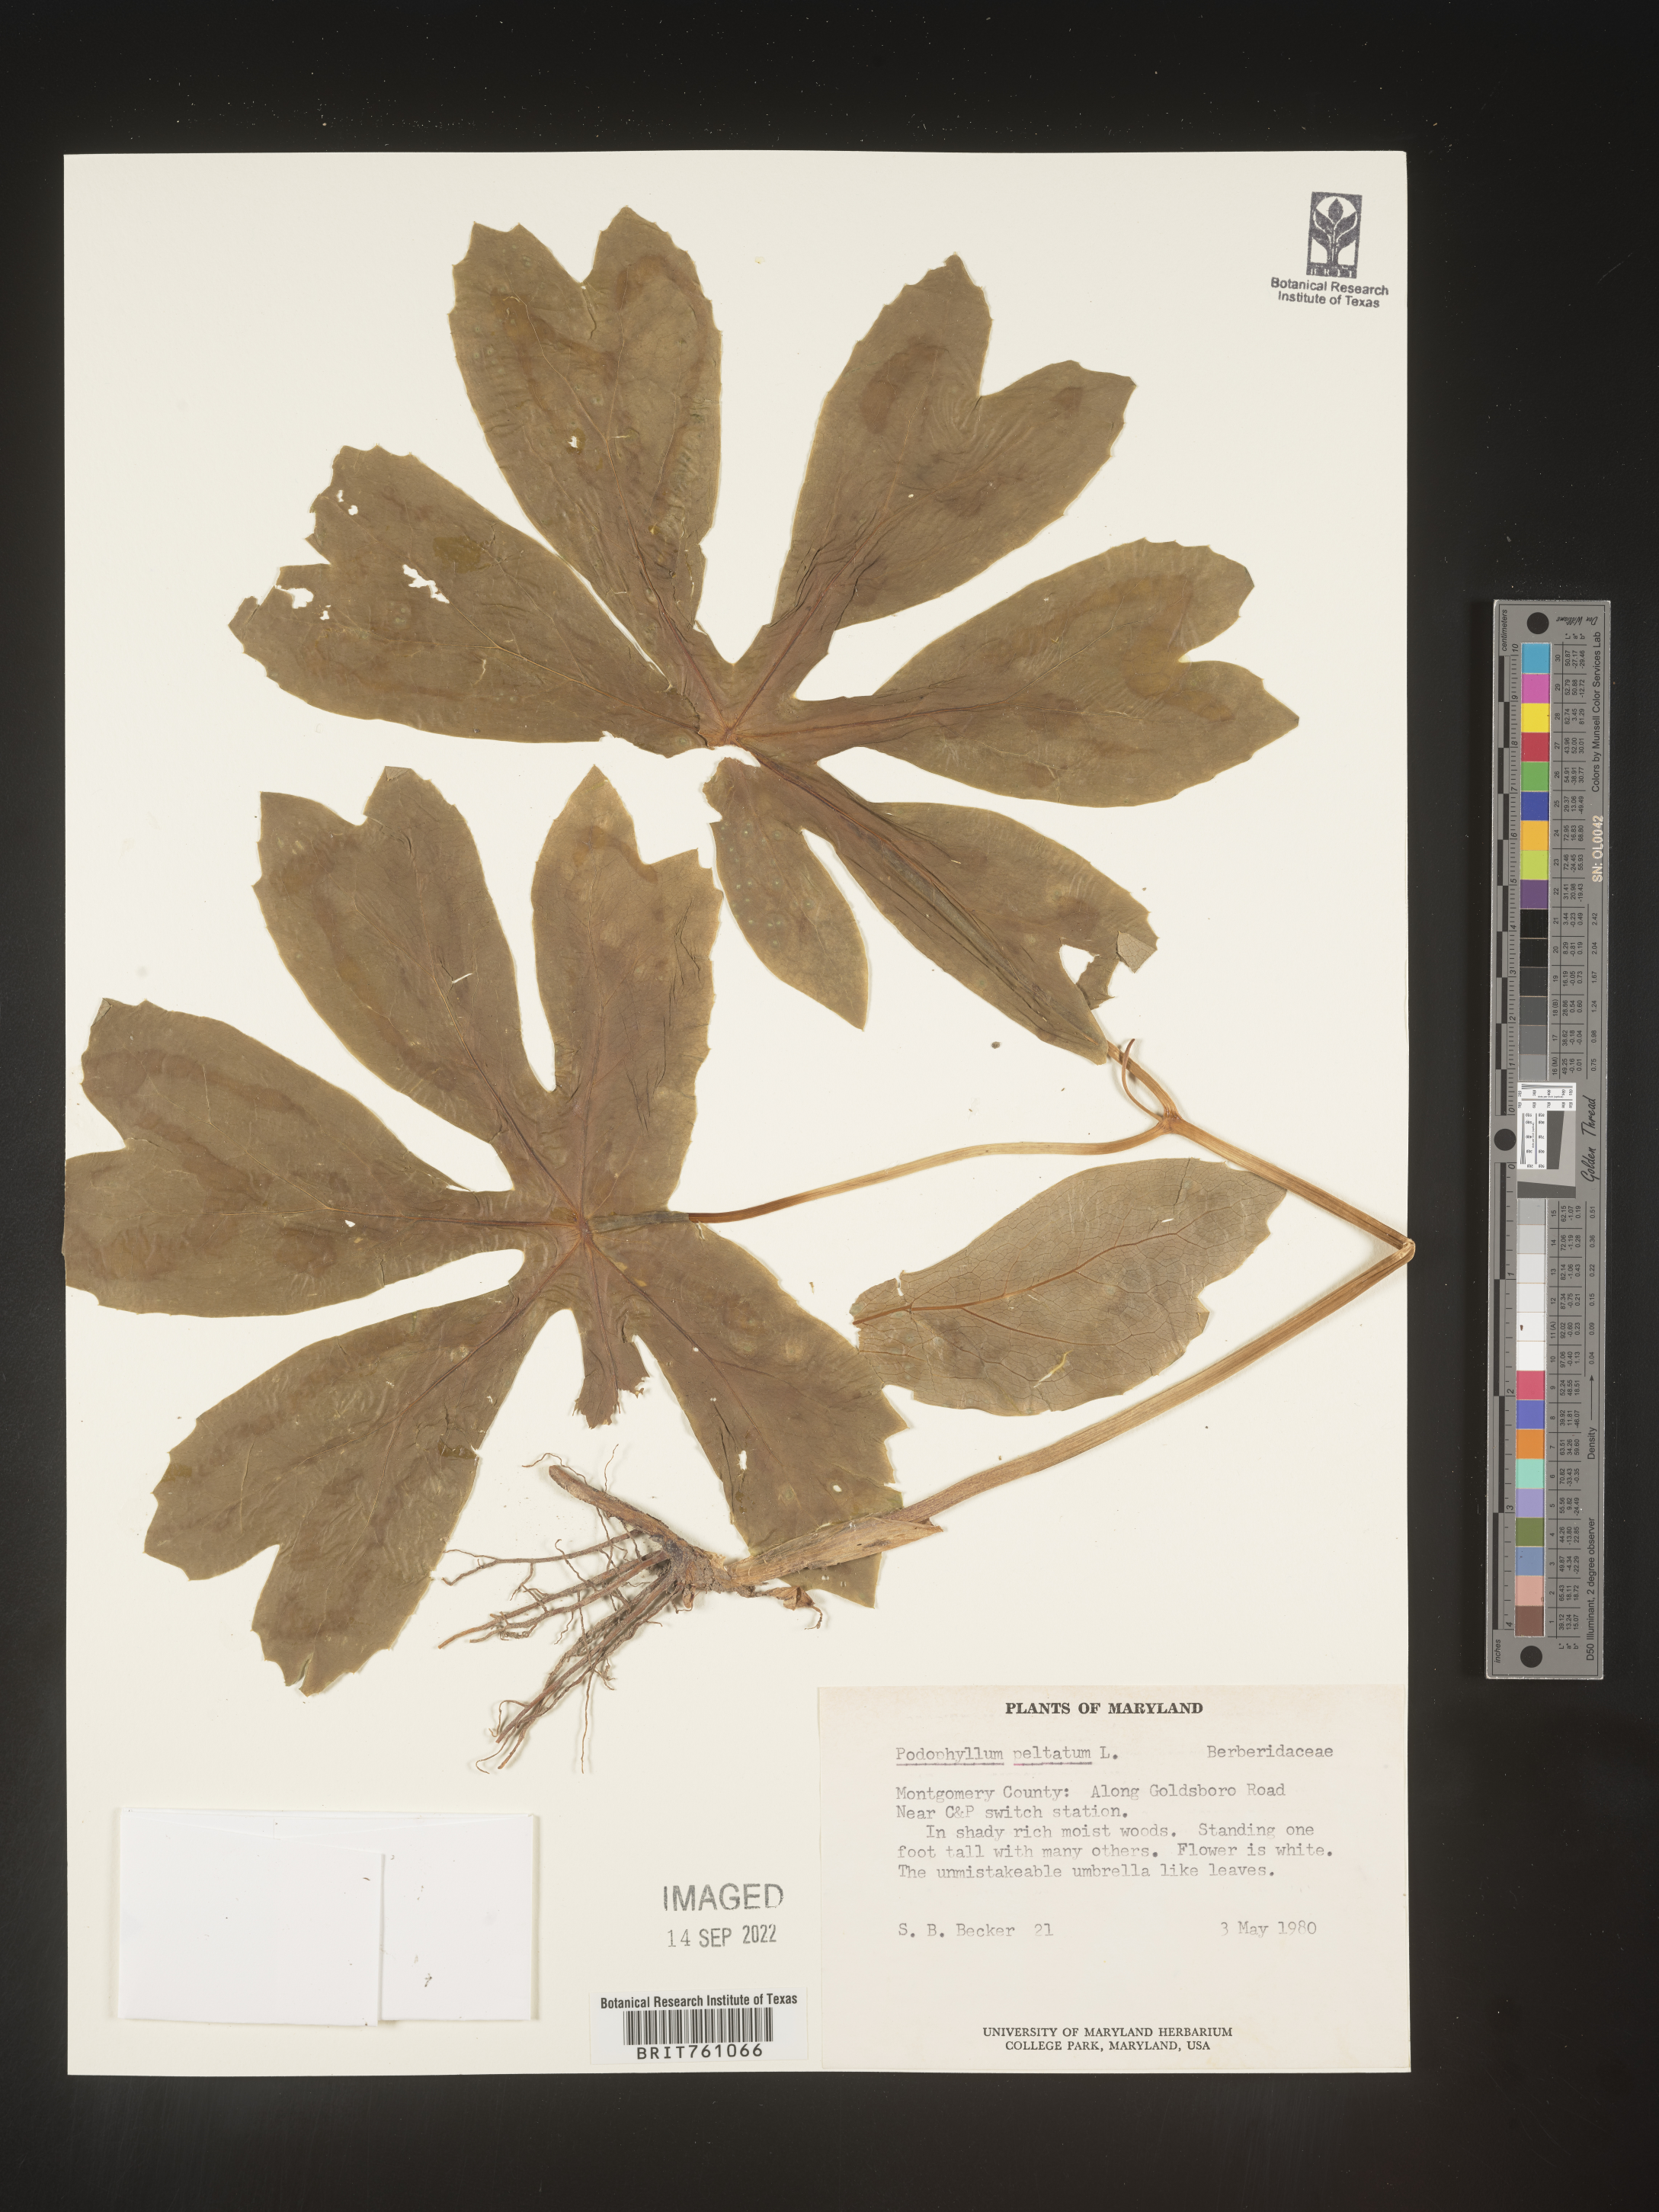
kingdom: Plantae
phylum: Tracheophyta
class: Magnoliopsida
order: Ranunculales
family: Berberidaceae
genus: Podophyllum
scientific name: Podophyllum peltatum
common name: Wild mandrake
